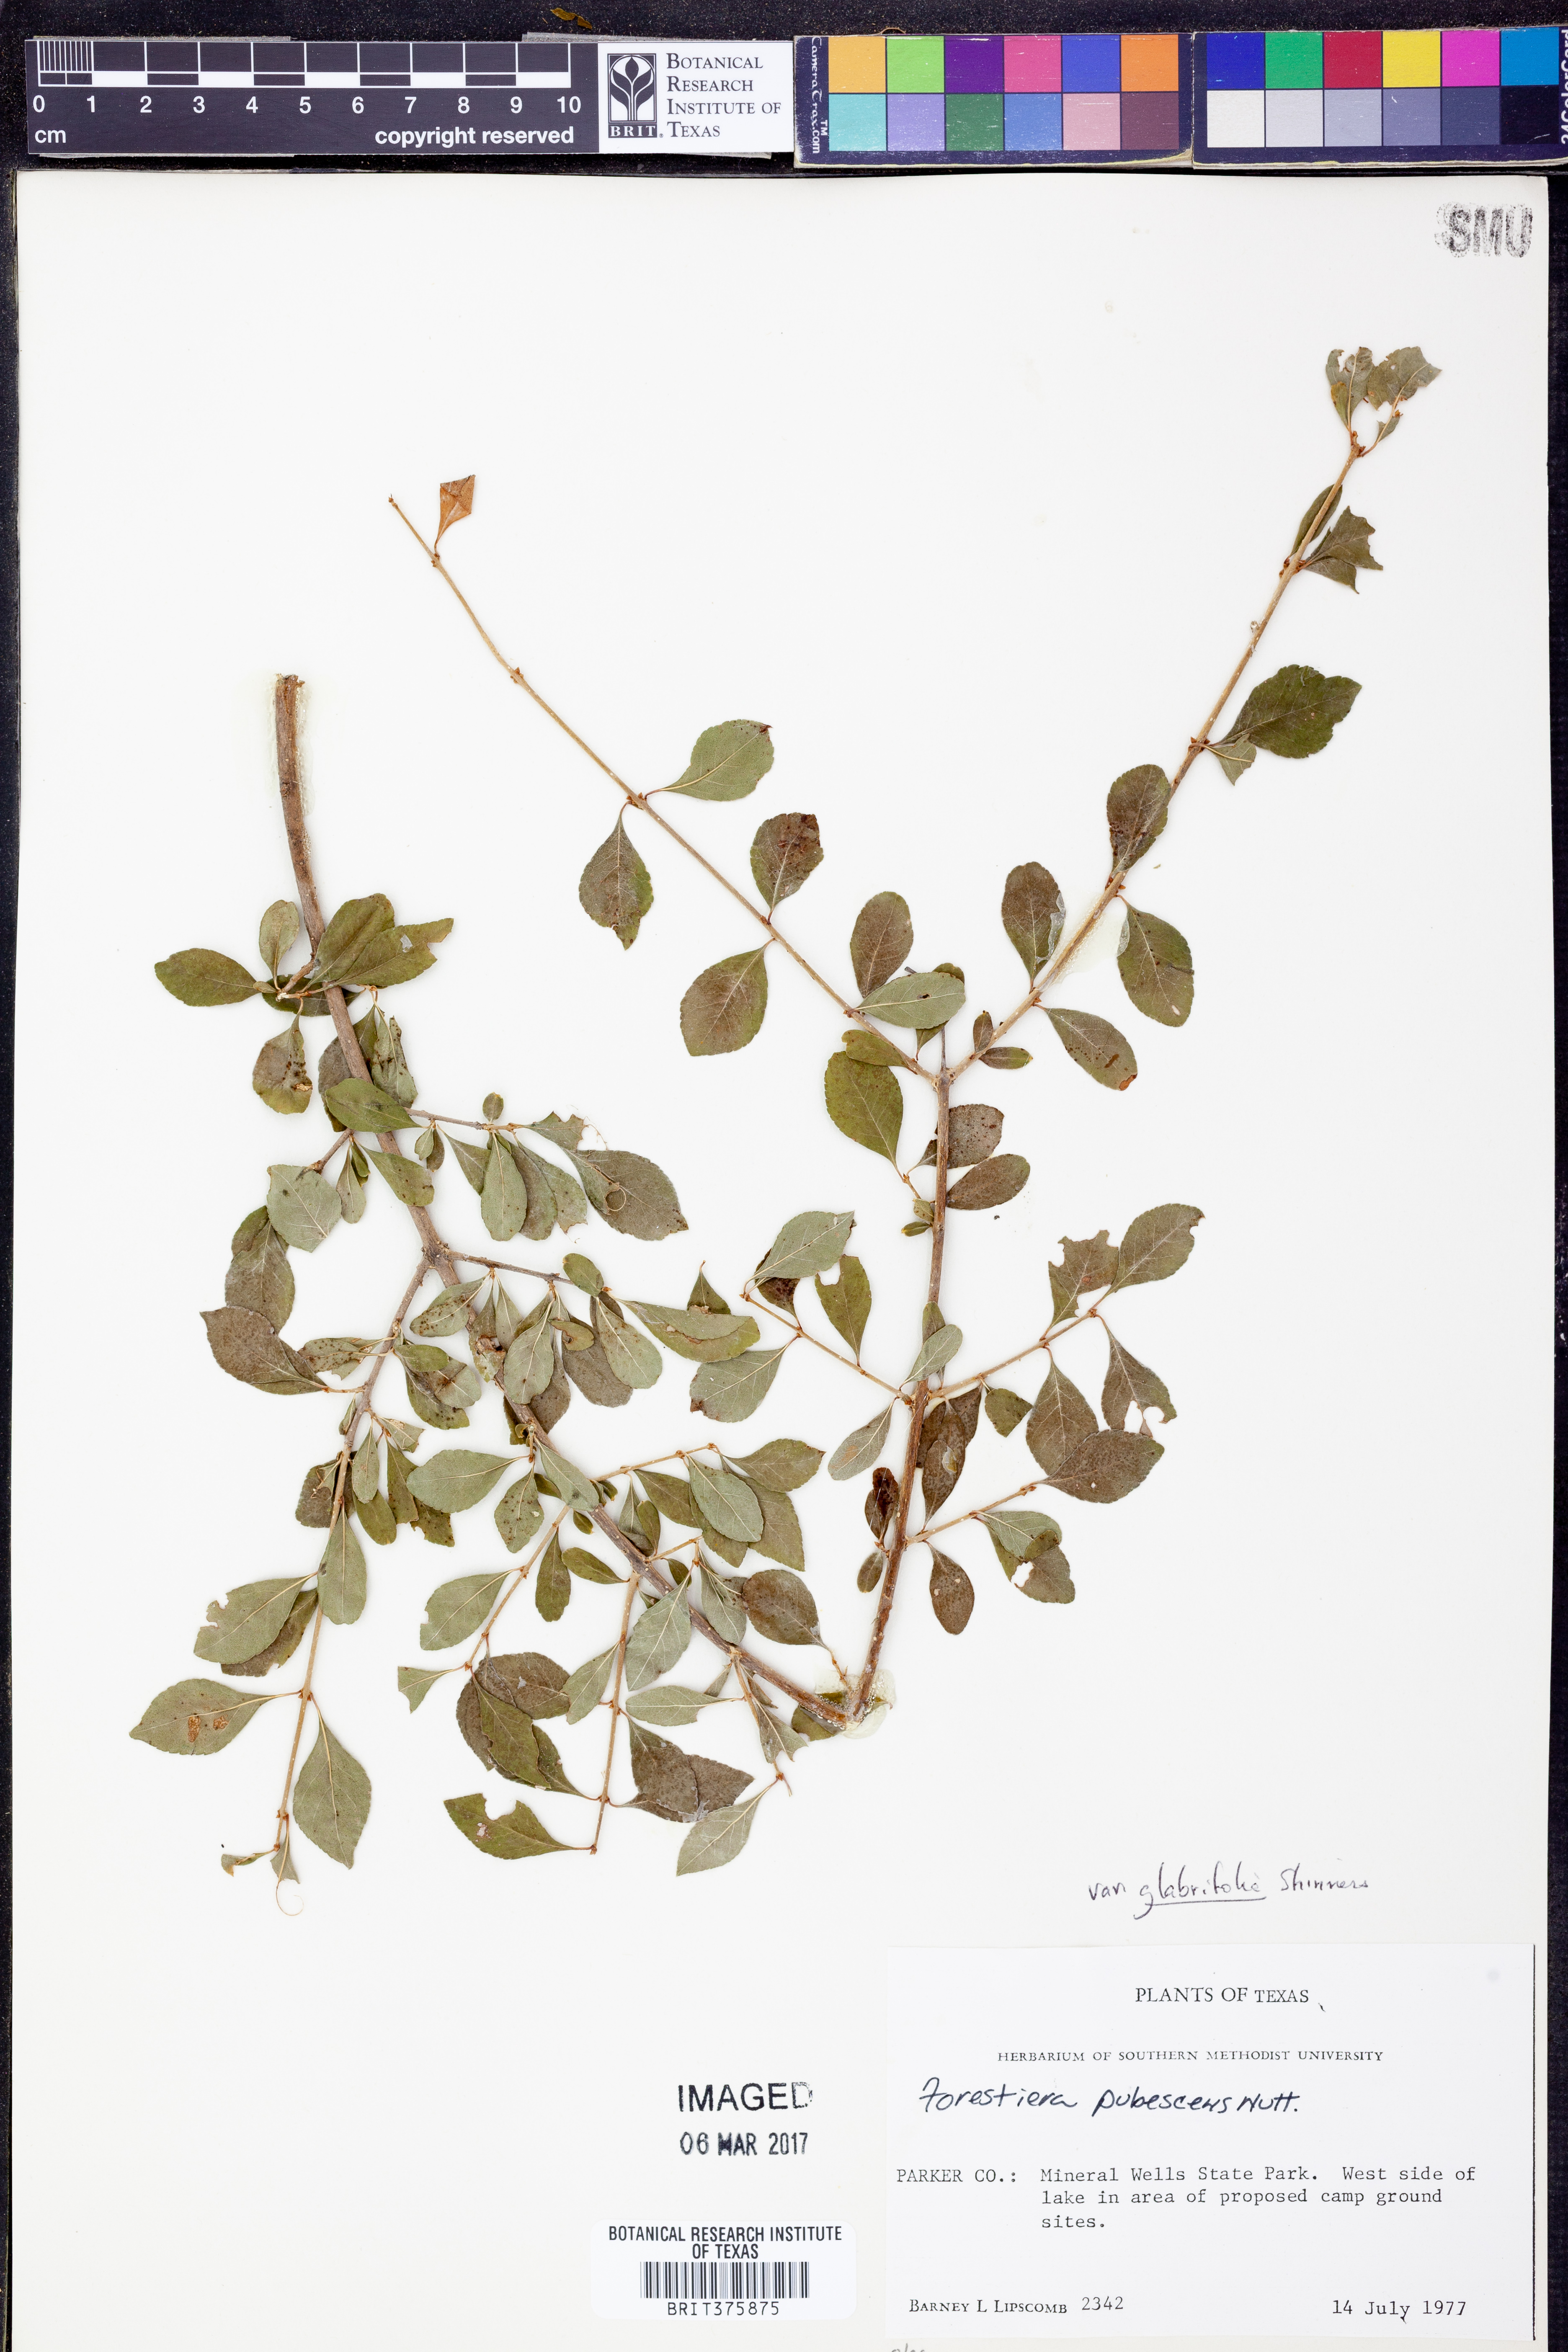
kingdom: Plantae
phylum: Tracheophyta
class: Magnoliopsida
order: Lamiales
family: Oleaceae
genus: Forestiera
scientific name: Forestiera pubescens
